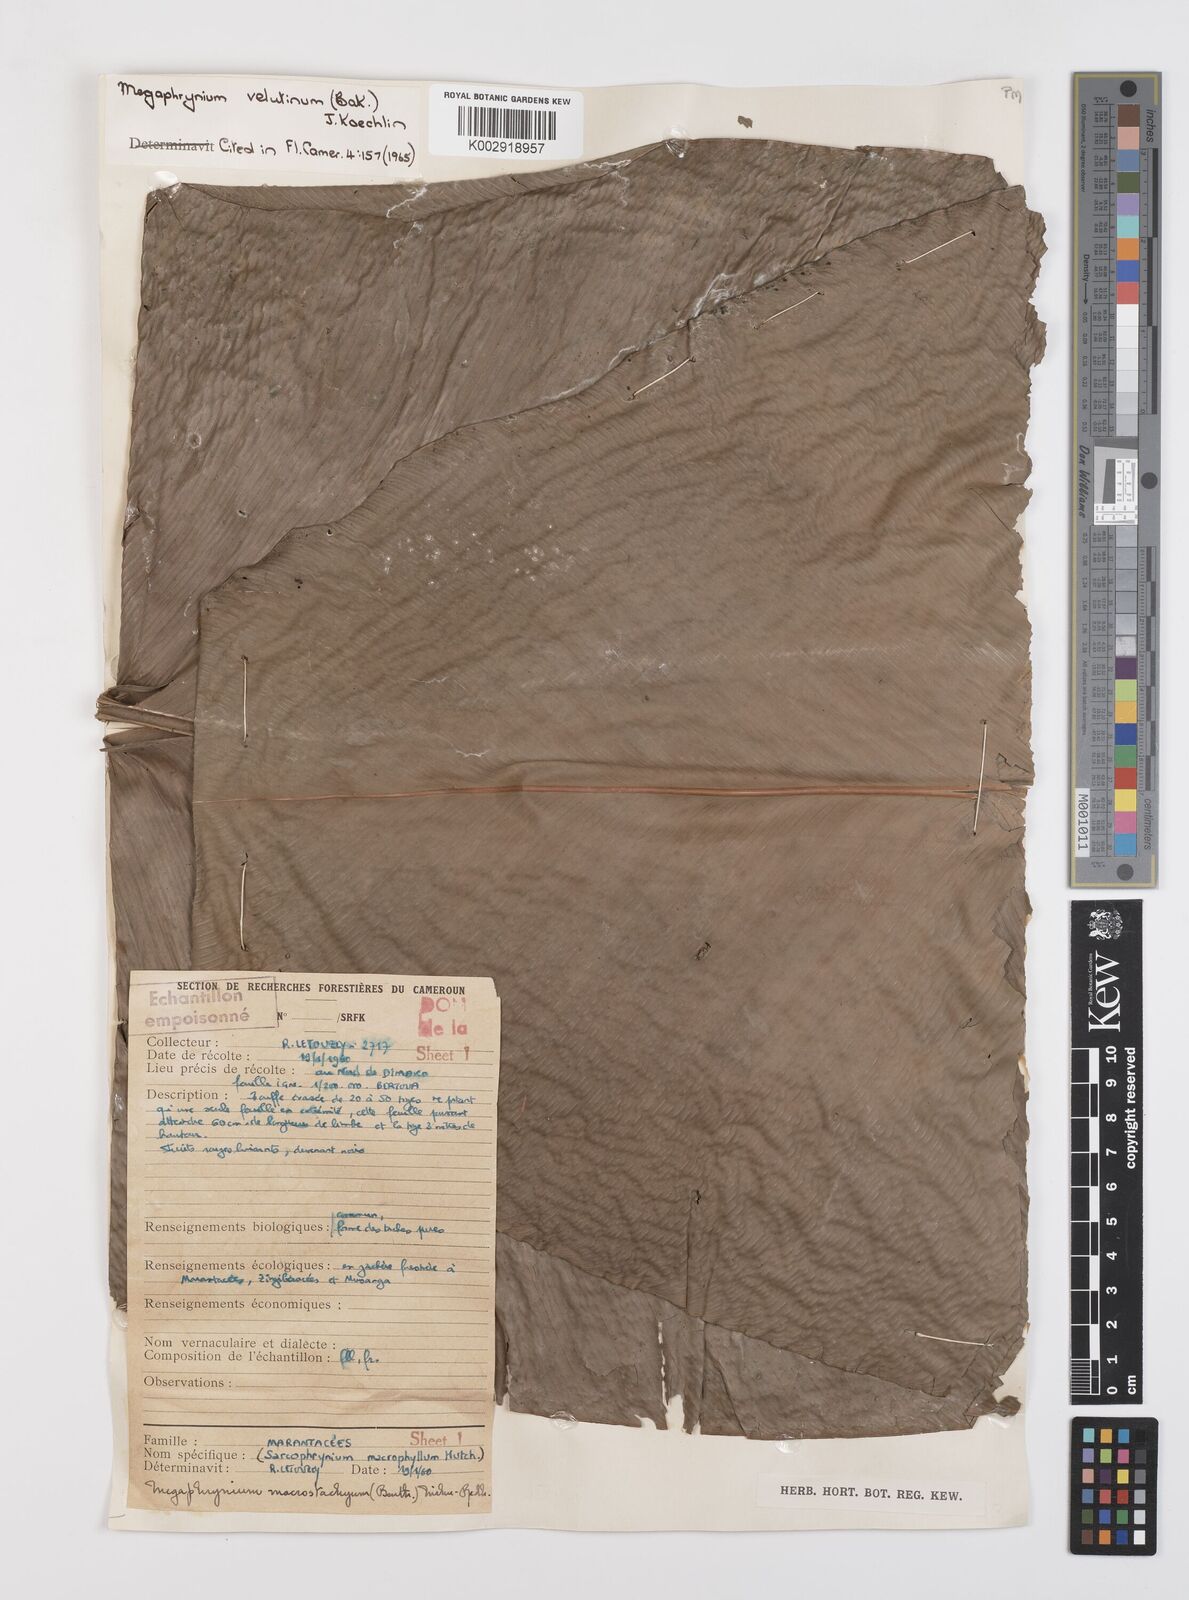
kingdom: Plantae
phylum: Tracheophyta
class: Liliopsida
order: Zingiberales
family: Marantaceae
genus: Megaphrynium
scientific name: Megaphrynium velutinum
